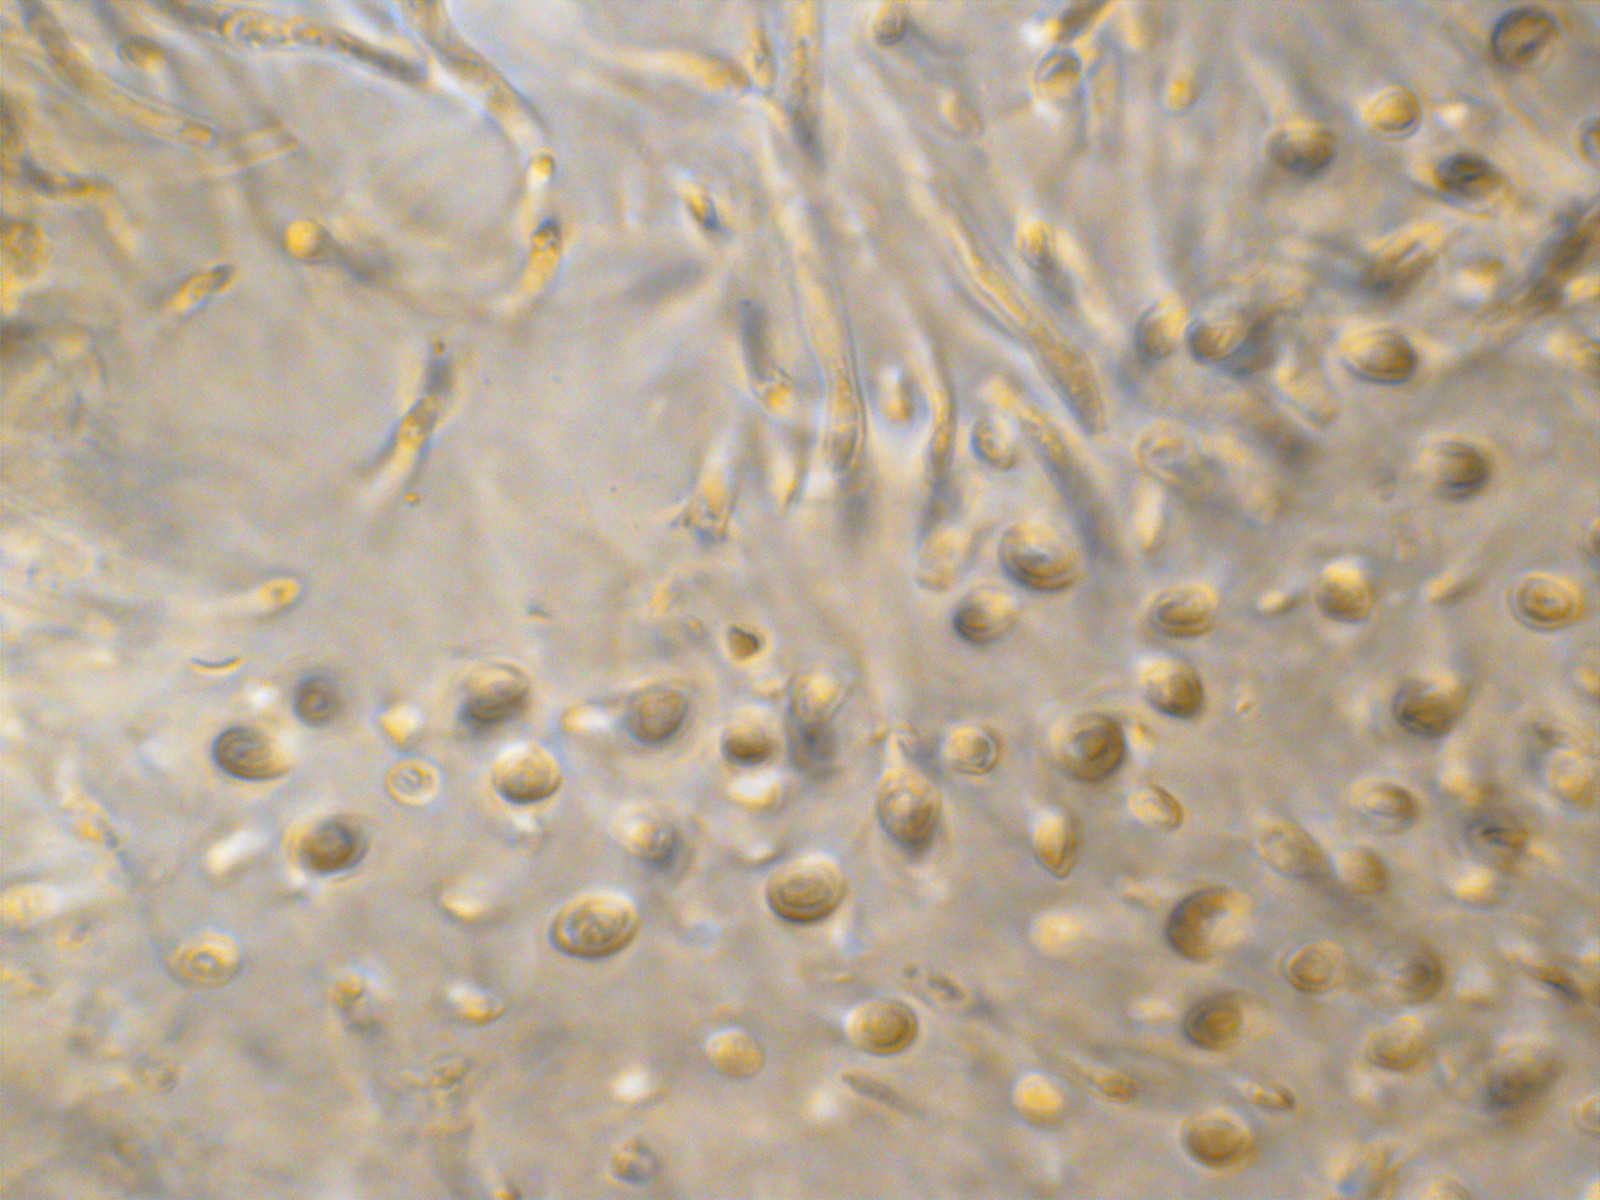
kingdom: Fungi
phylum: Basidiomycota
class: Dacrymycetes
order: Dacrymycetales
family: Dacrymycetaceae
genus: Dacrymyces
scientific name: Dacrymyces
